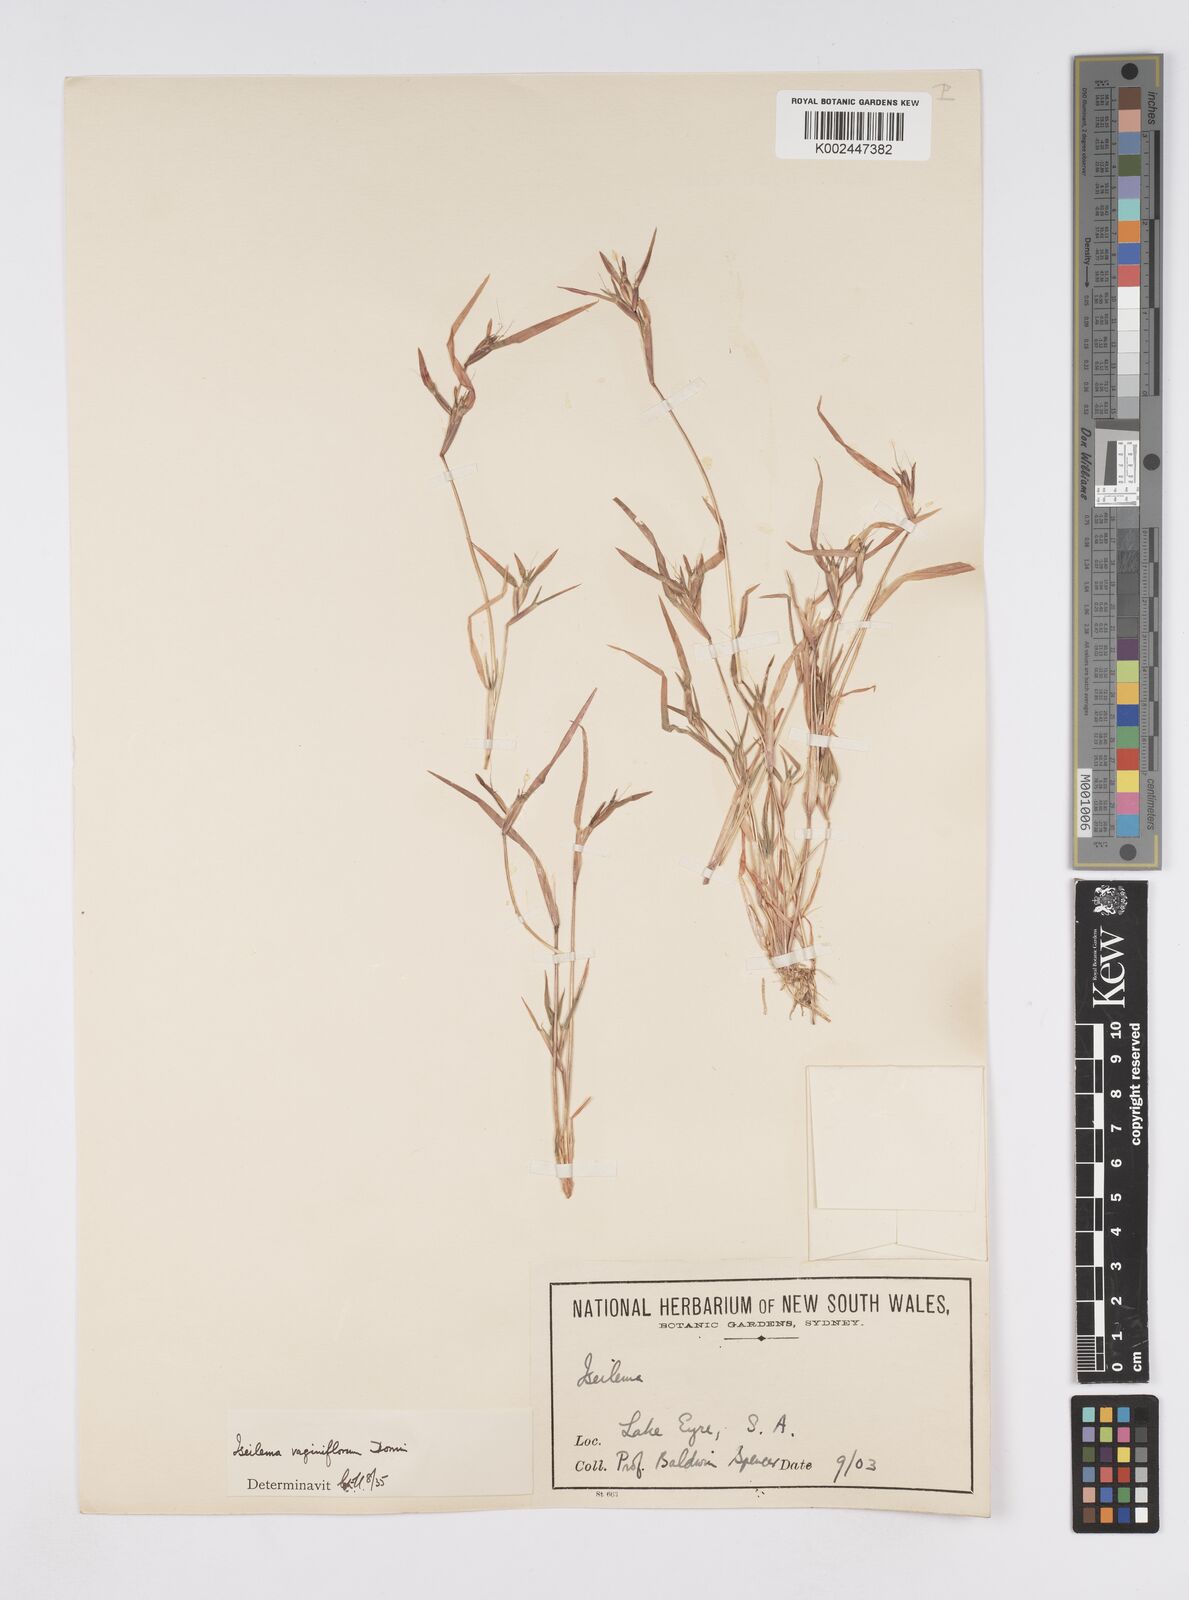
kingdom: Plantae
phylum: Tracheophyta
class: Liliopsida
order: Poales
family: Poaceae
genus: Iseilema
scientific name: Iseilema vaginiflorum
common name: Red flinders grass
